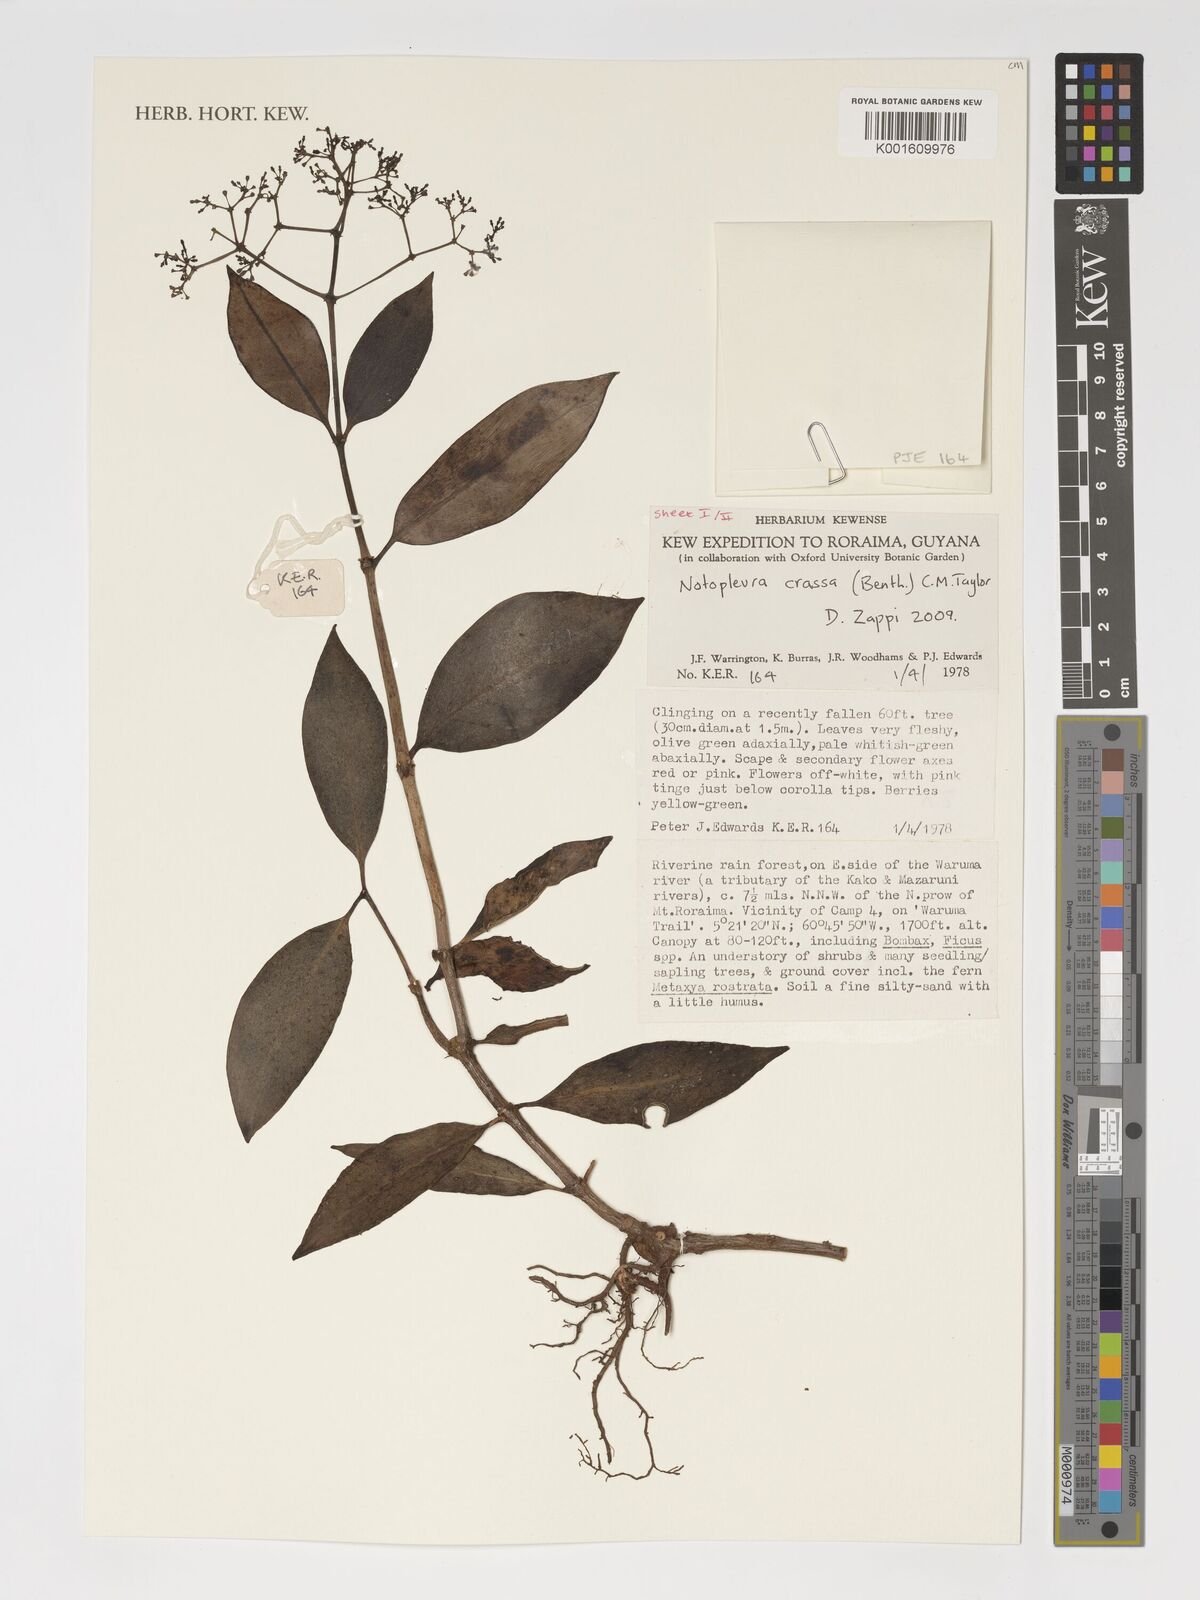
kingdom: Plantae
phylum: Tracheophyta
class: Magnoliopsida
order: Gentianales
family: Rubiaceae
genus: Notopleura
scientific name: Notopleura crassa
